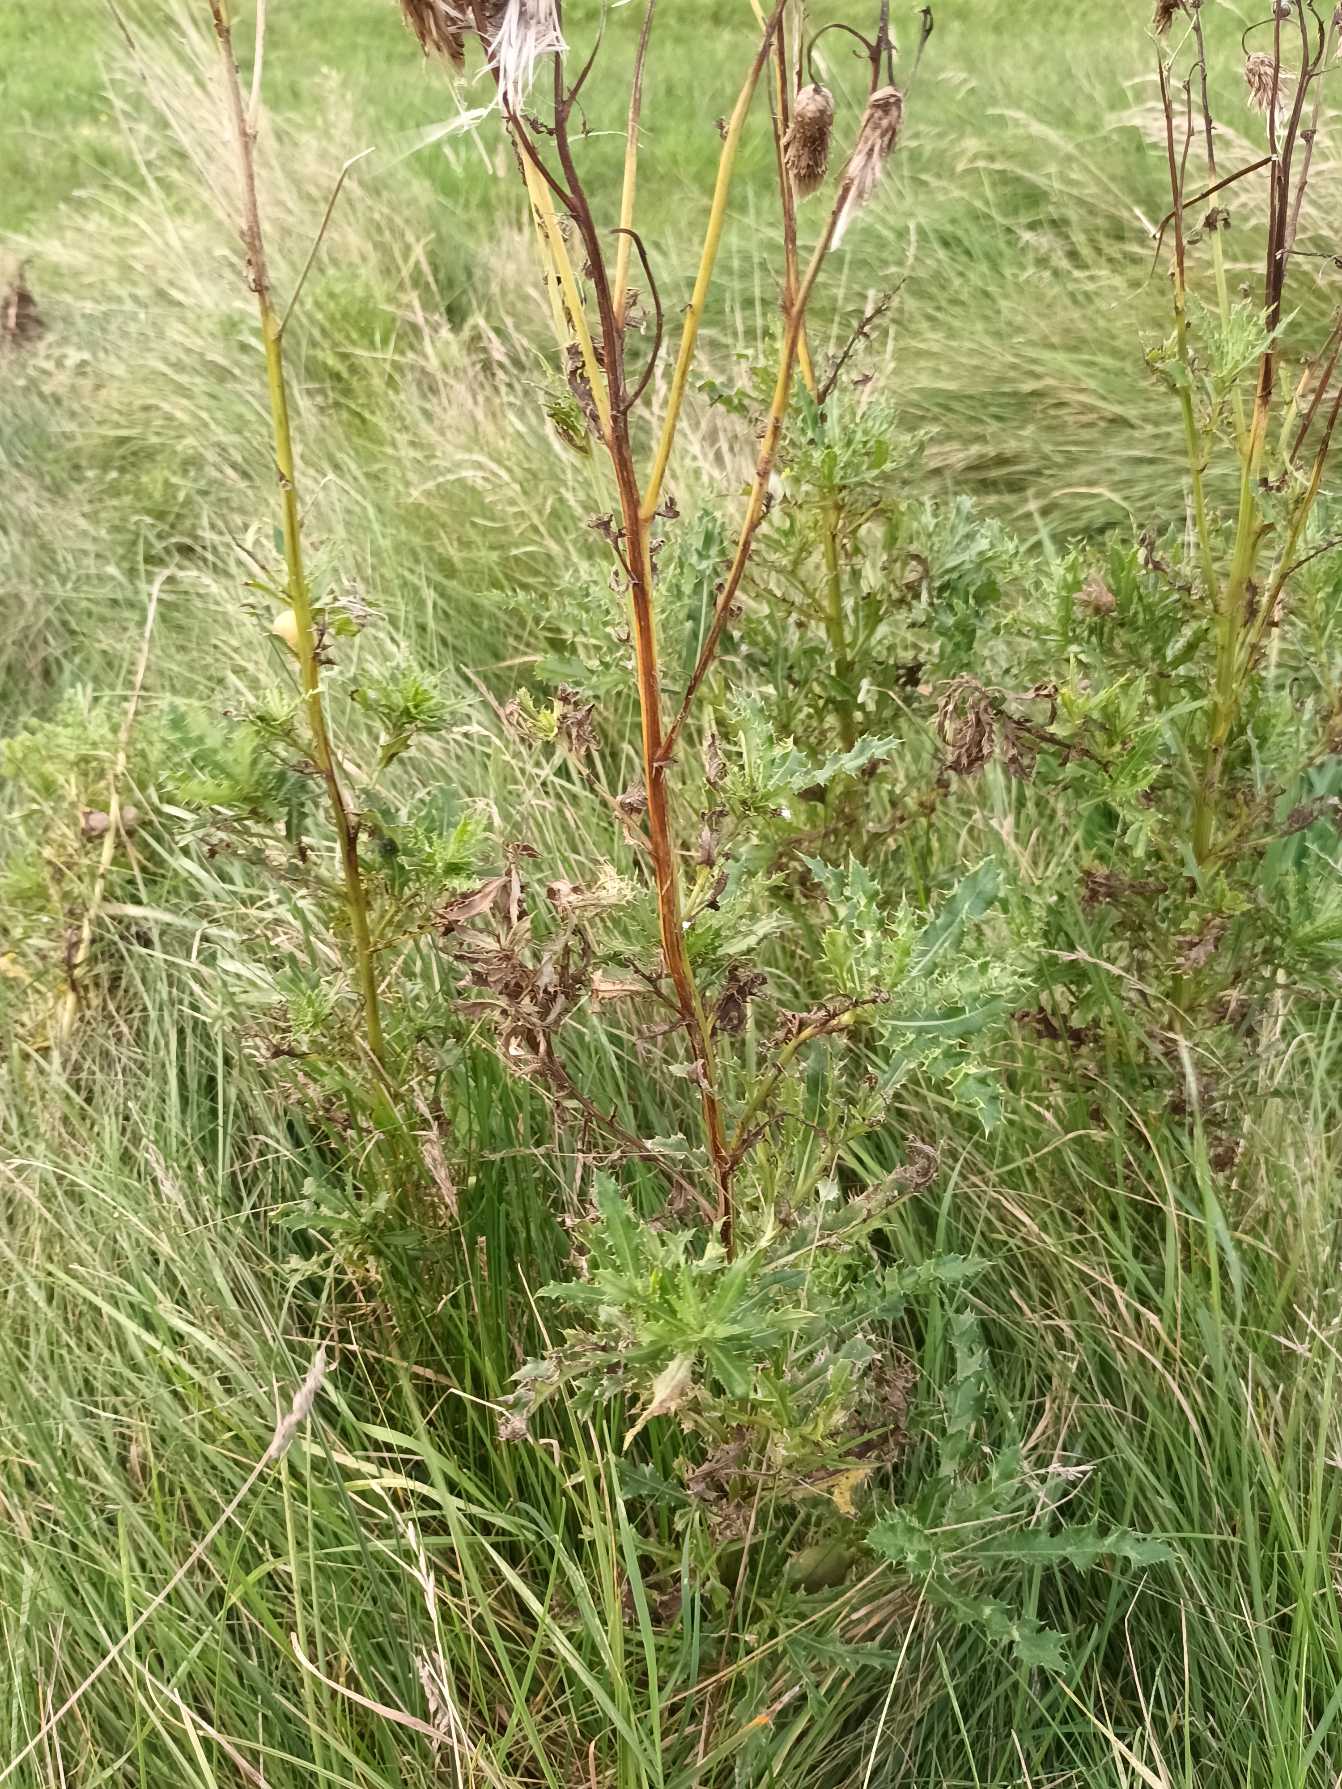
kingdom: Plantae
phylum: Tracheophyta
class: Magnoliopsida
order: Asterales
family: Asteraceae
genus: Cirsium
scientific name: Cirsium arvense
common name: Ager-tidsel
